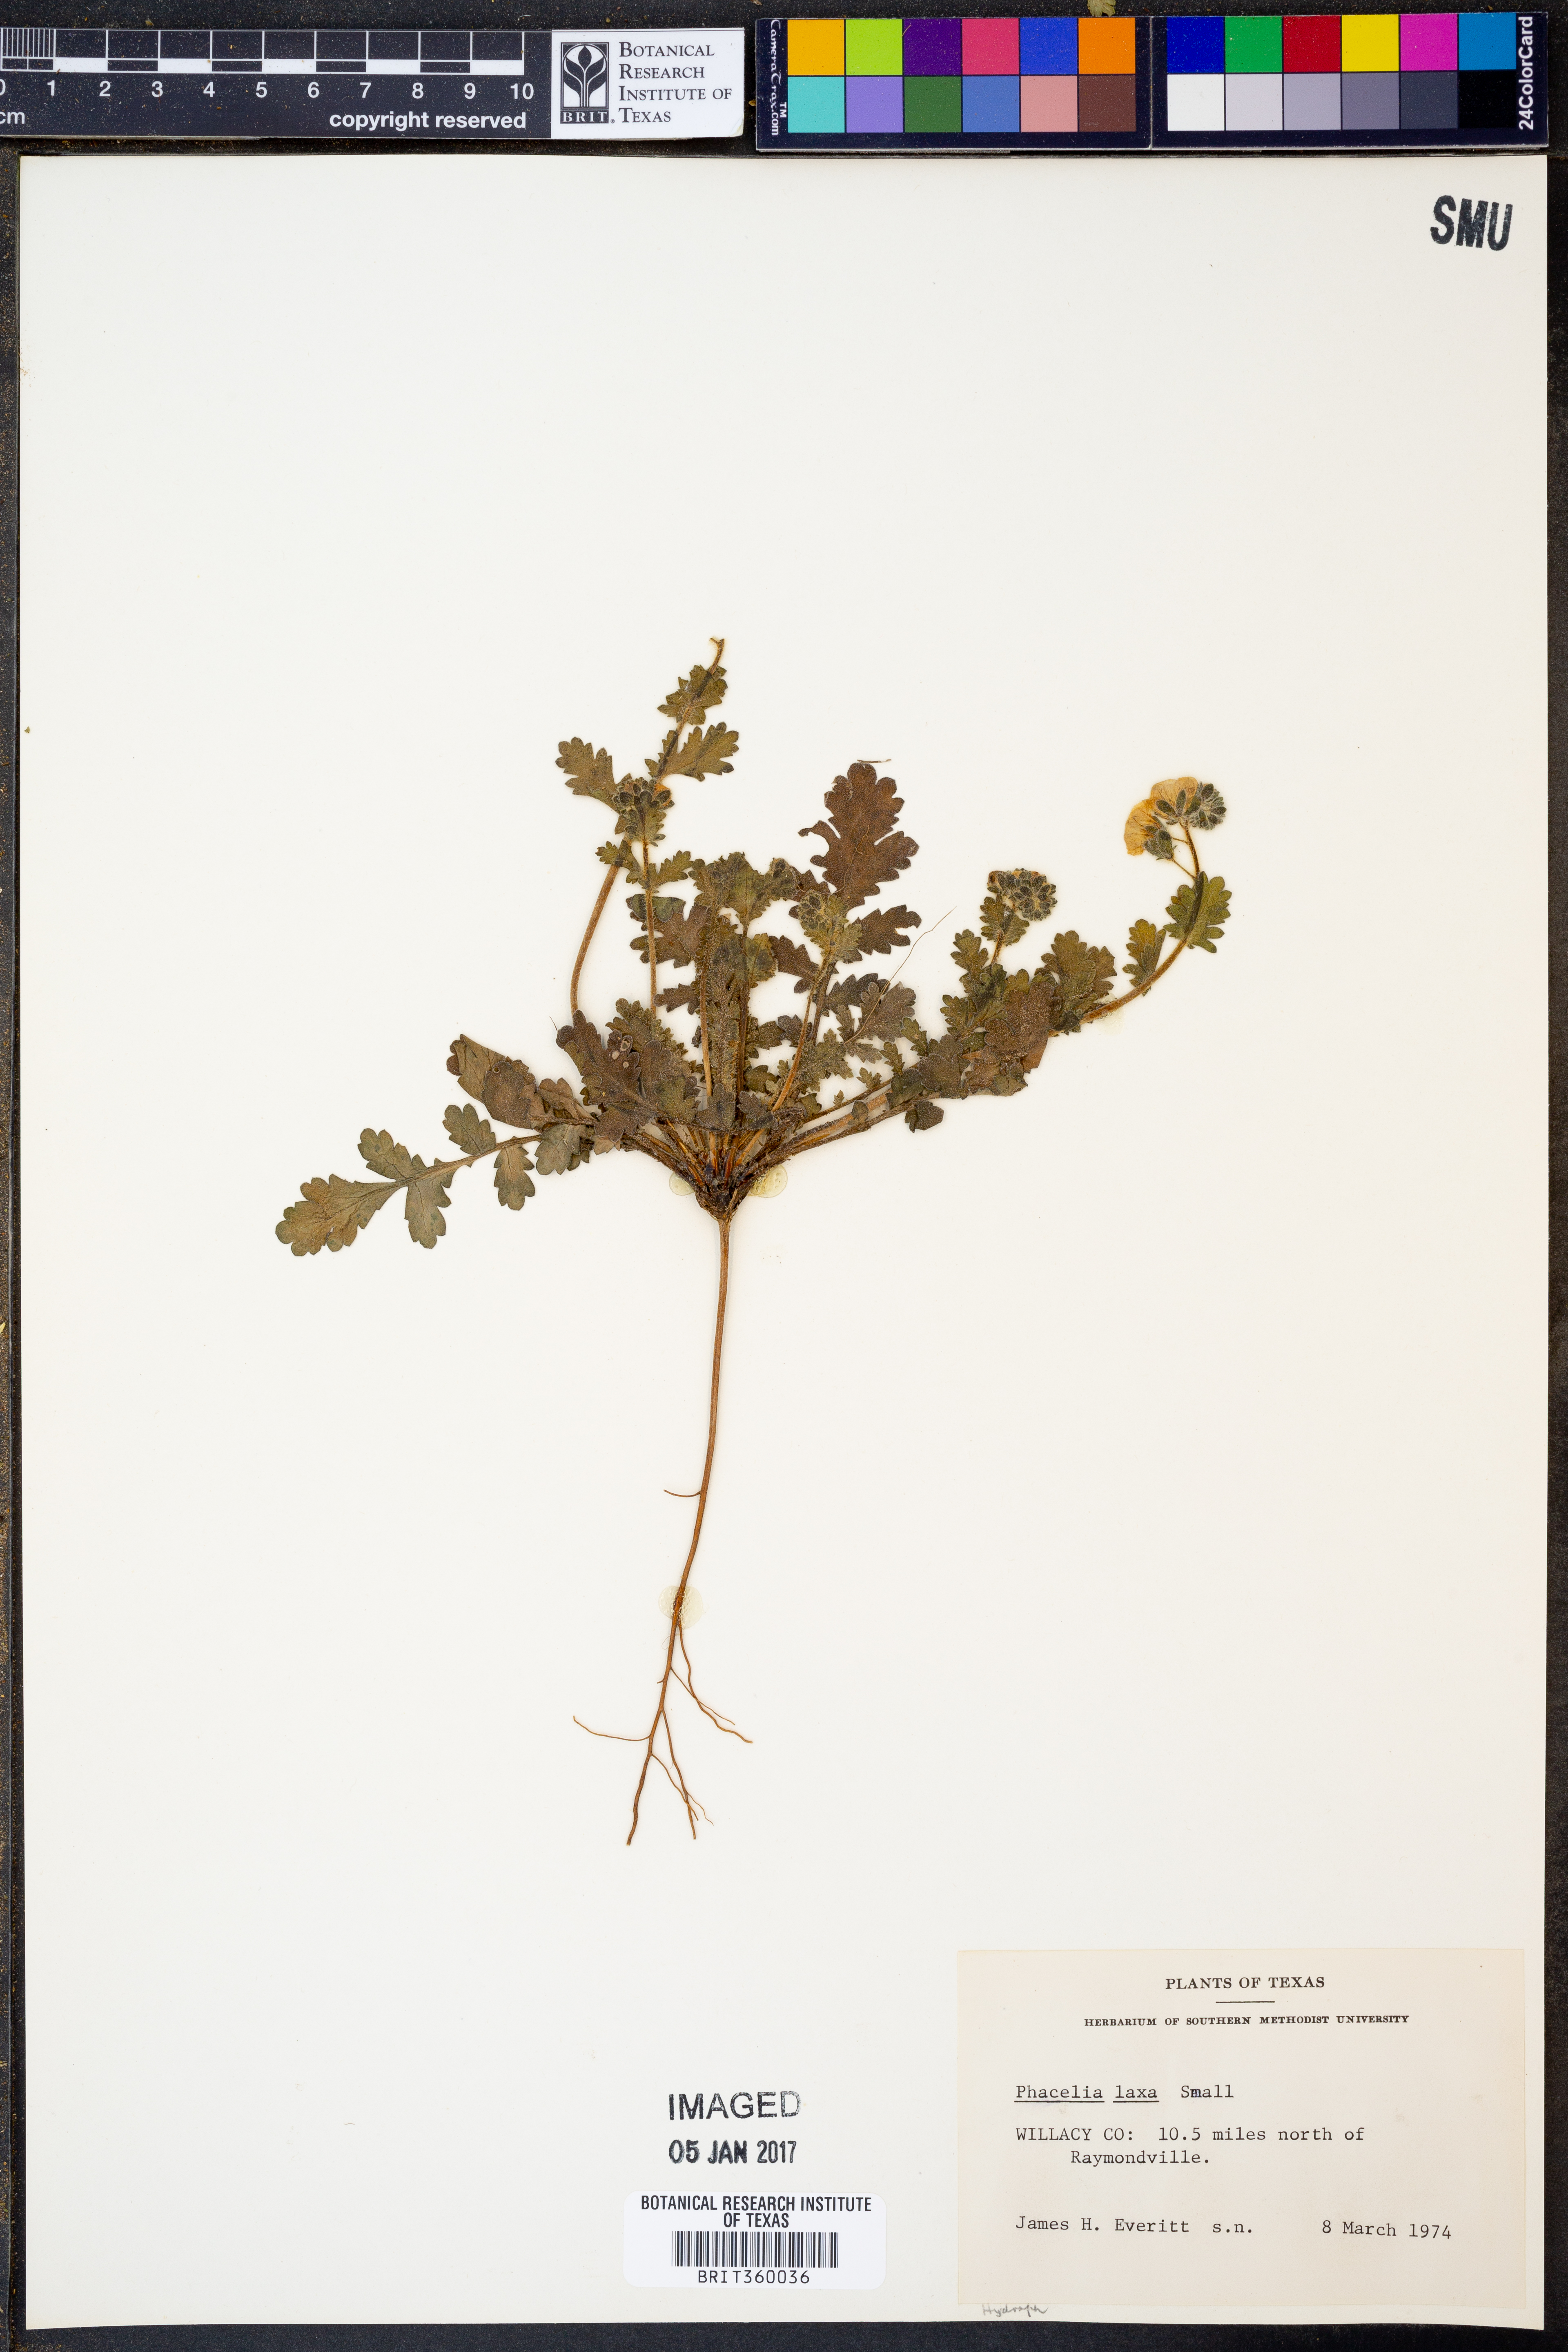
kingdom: Plantae
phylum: Tracheophyta
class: Magnoliopsida
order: Boraginales
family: Hydrophyllaceae
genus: Phacelia
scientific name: Phacelia laxa
